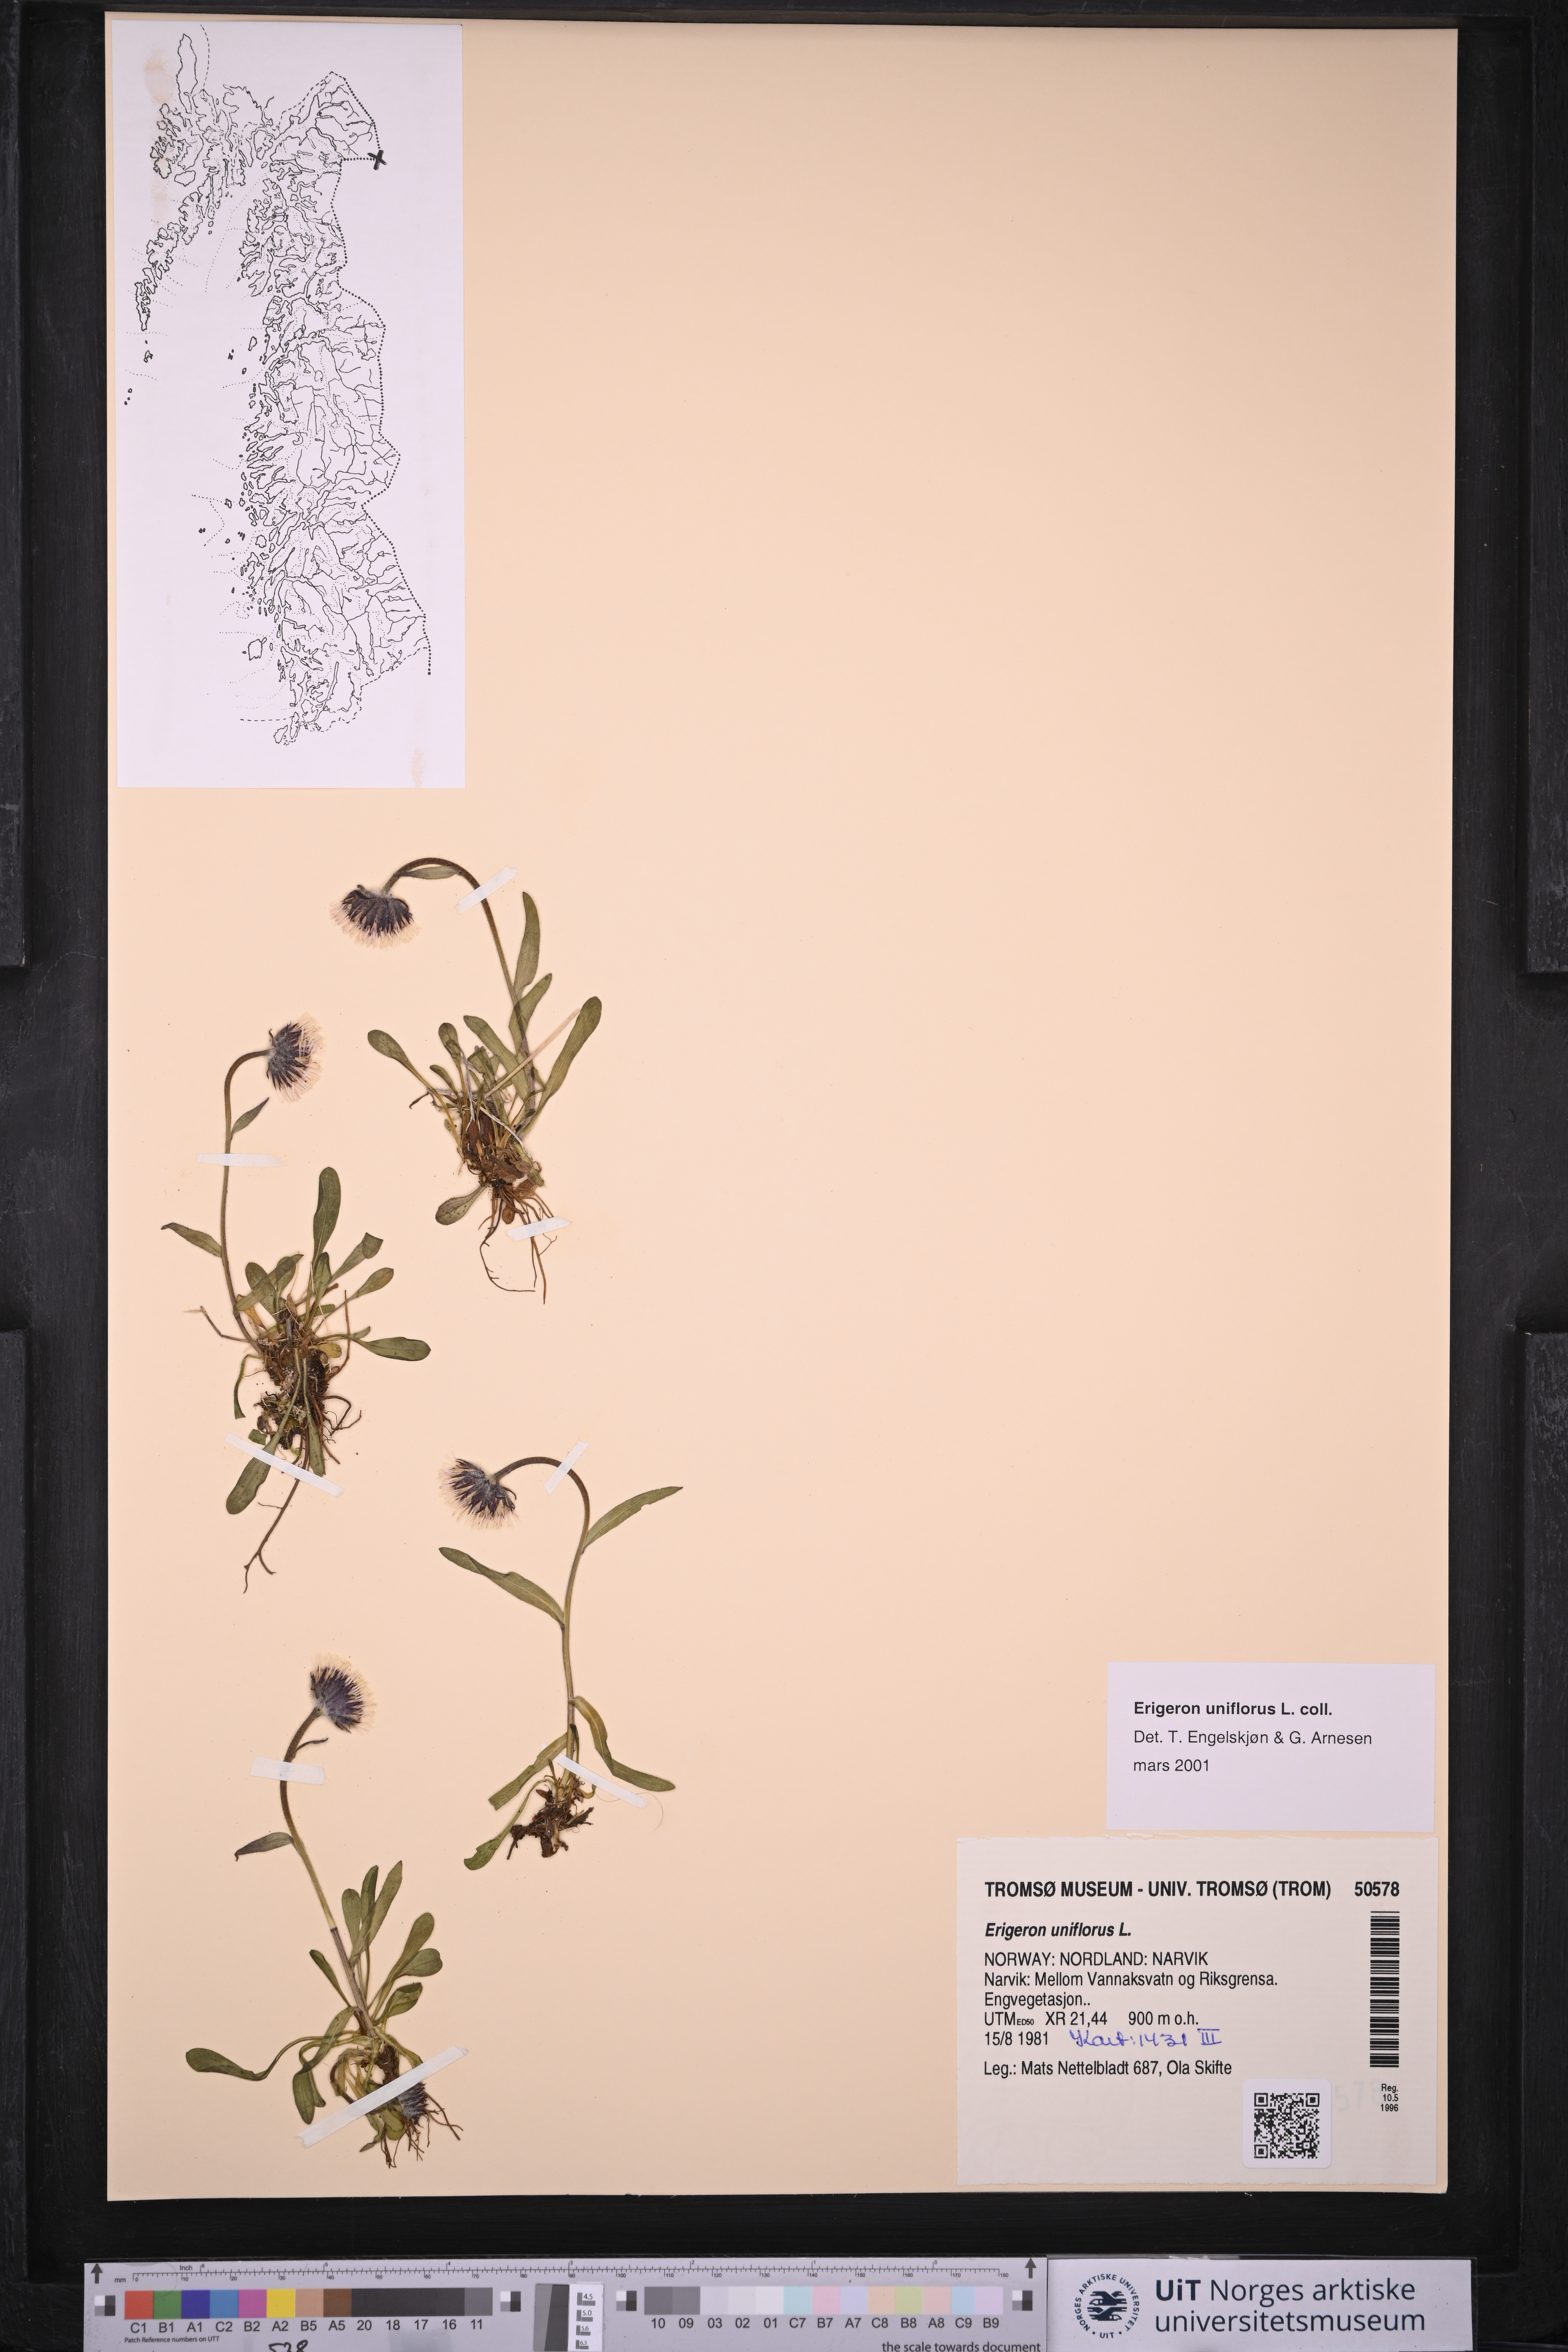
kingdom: Plantae
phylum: Tracheophyta
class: Magnoliopsida
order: Asterales
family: Asteraceae
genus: Erigeron
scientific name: Erigeron uniflorus
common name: Northern daisy
